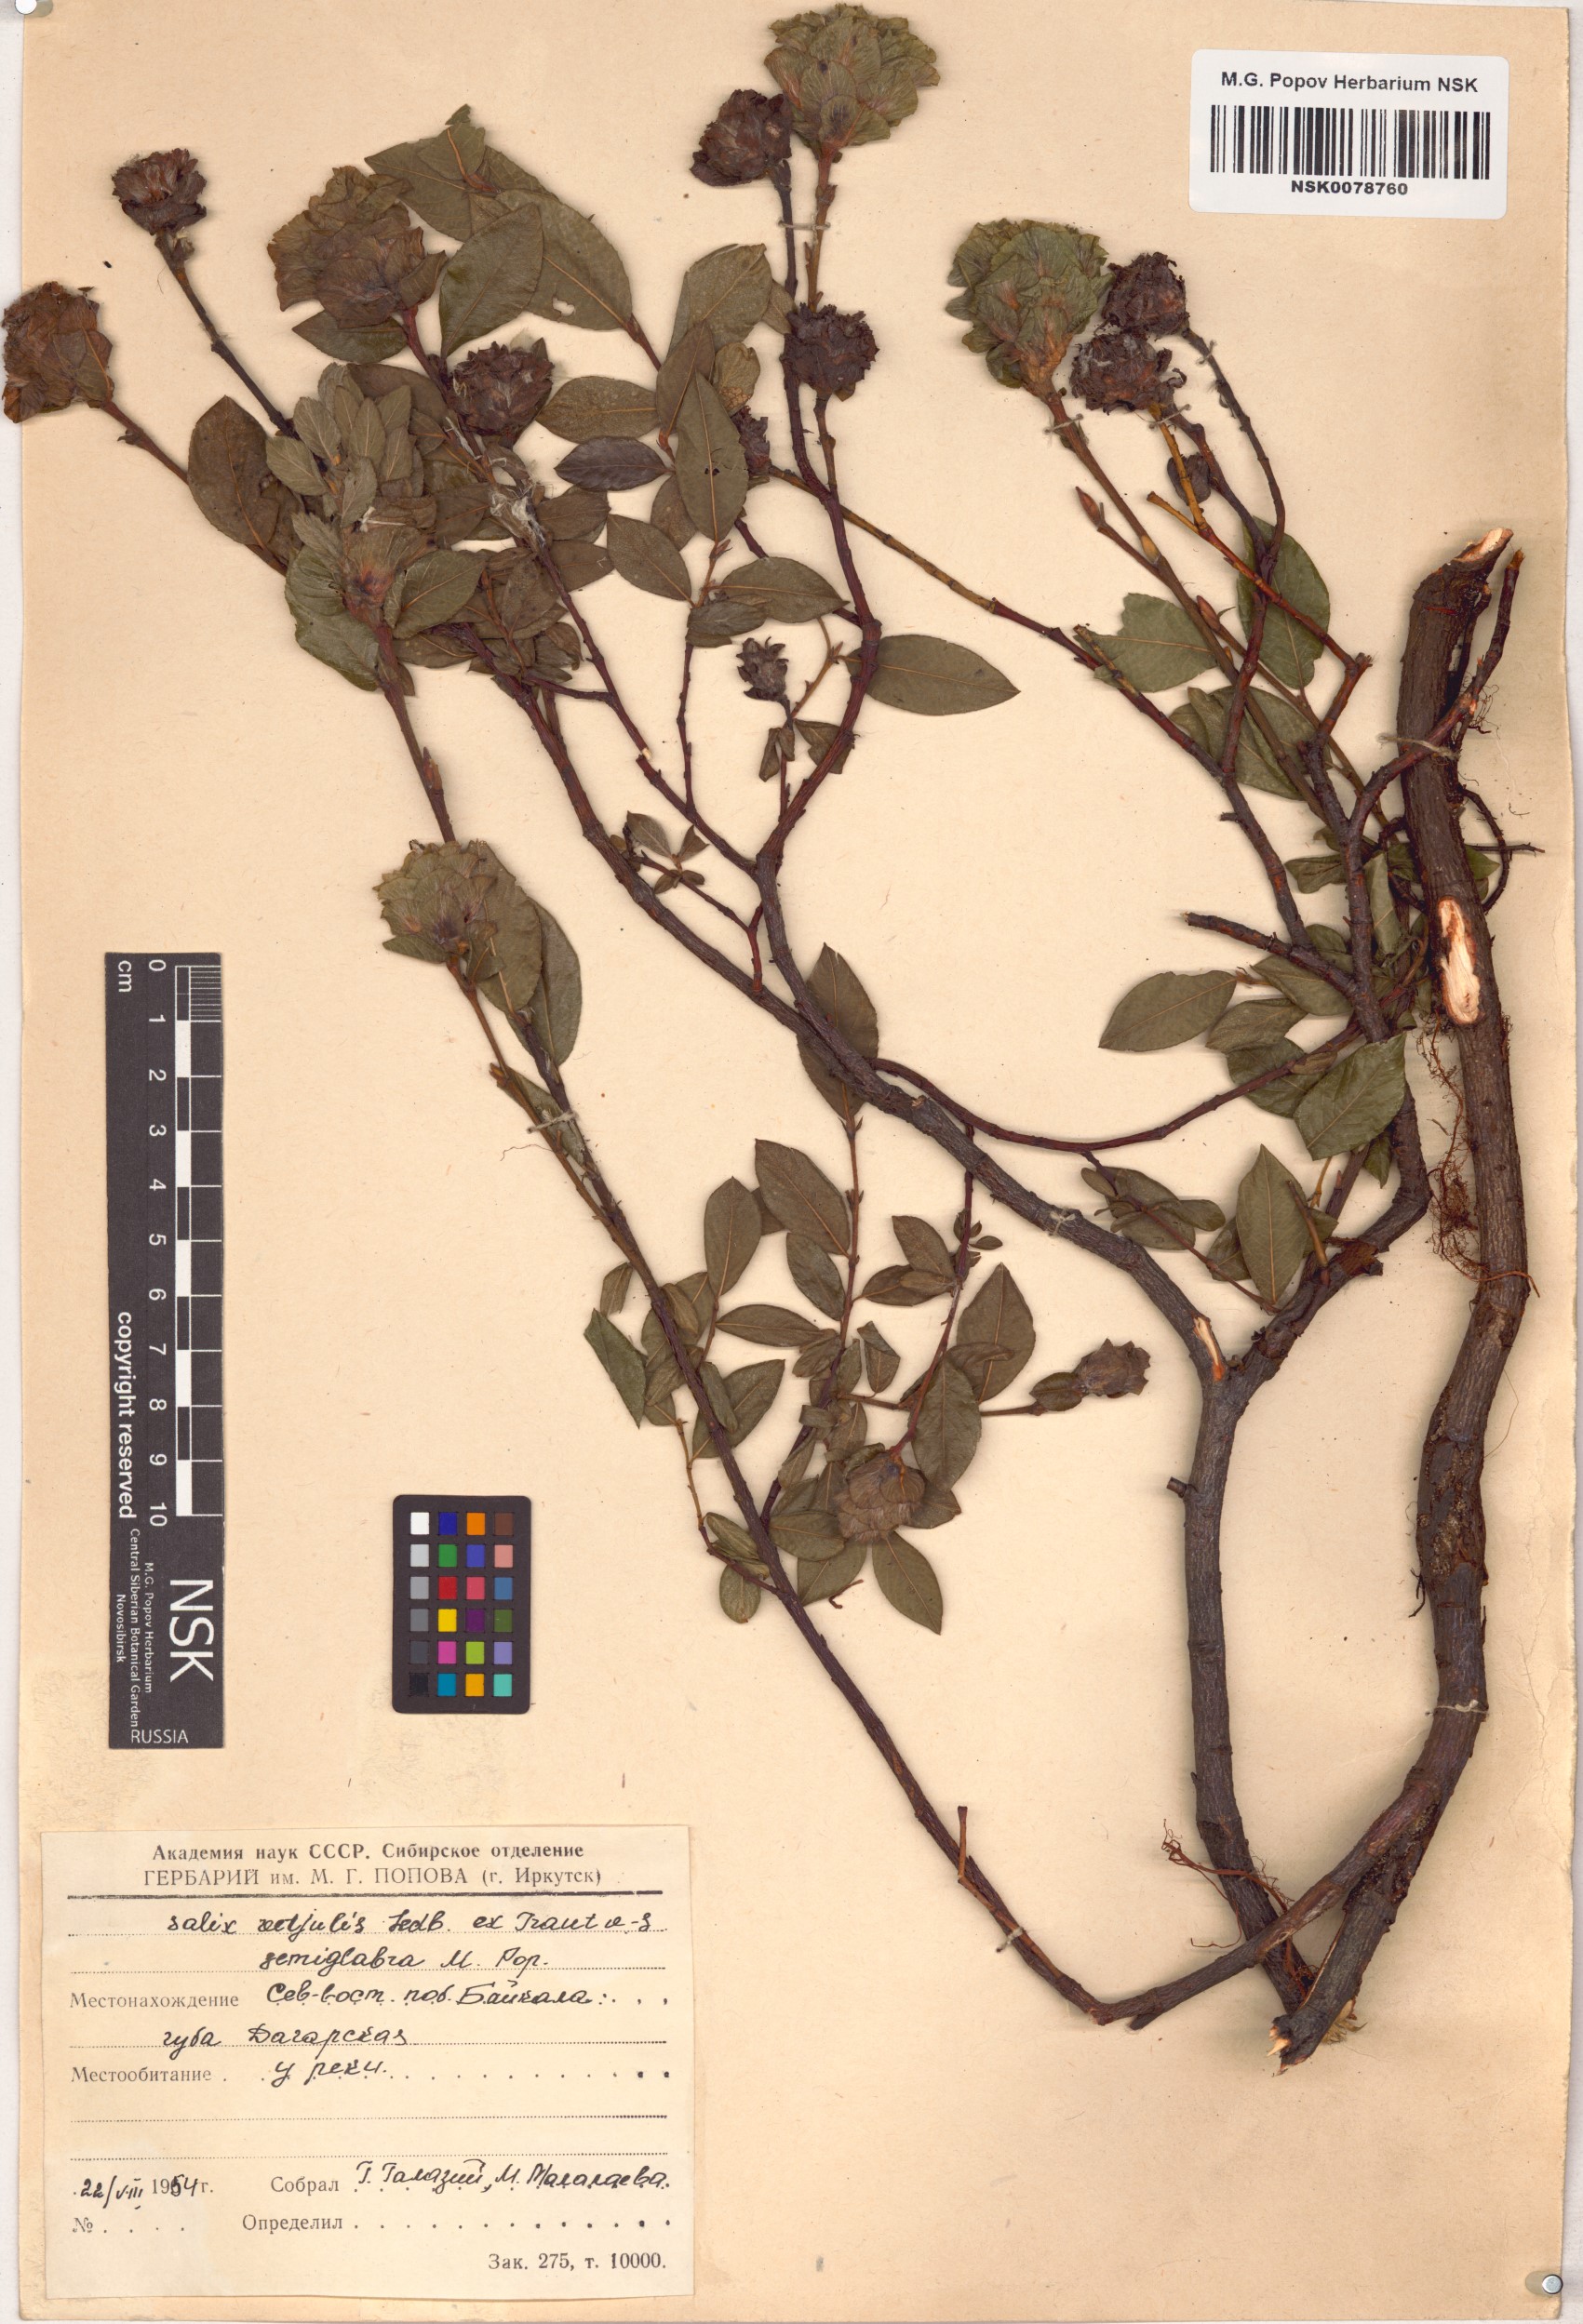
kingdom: Plantae
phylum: Tracheophyta
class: Magnoliopsida
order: Malpighiales
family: Salicaceae
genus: Salix
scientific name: Salix rectijulis
